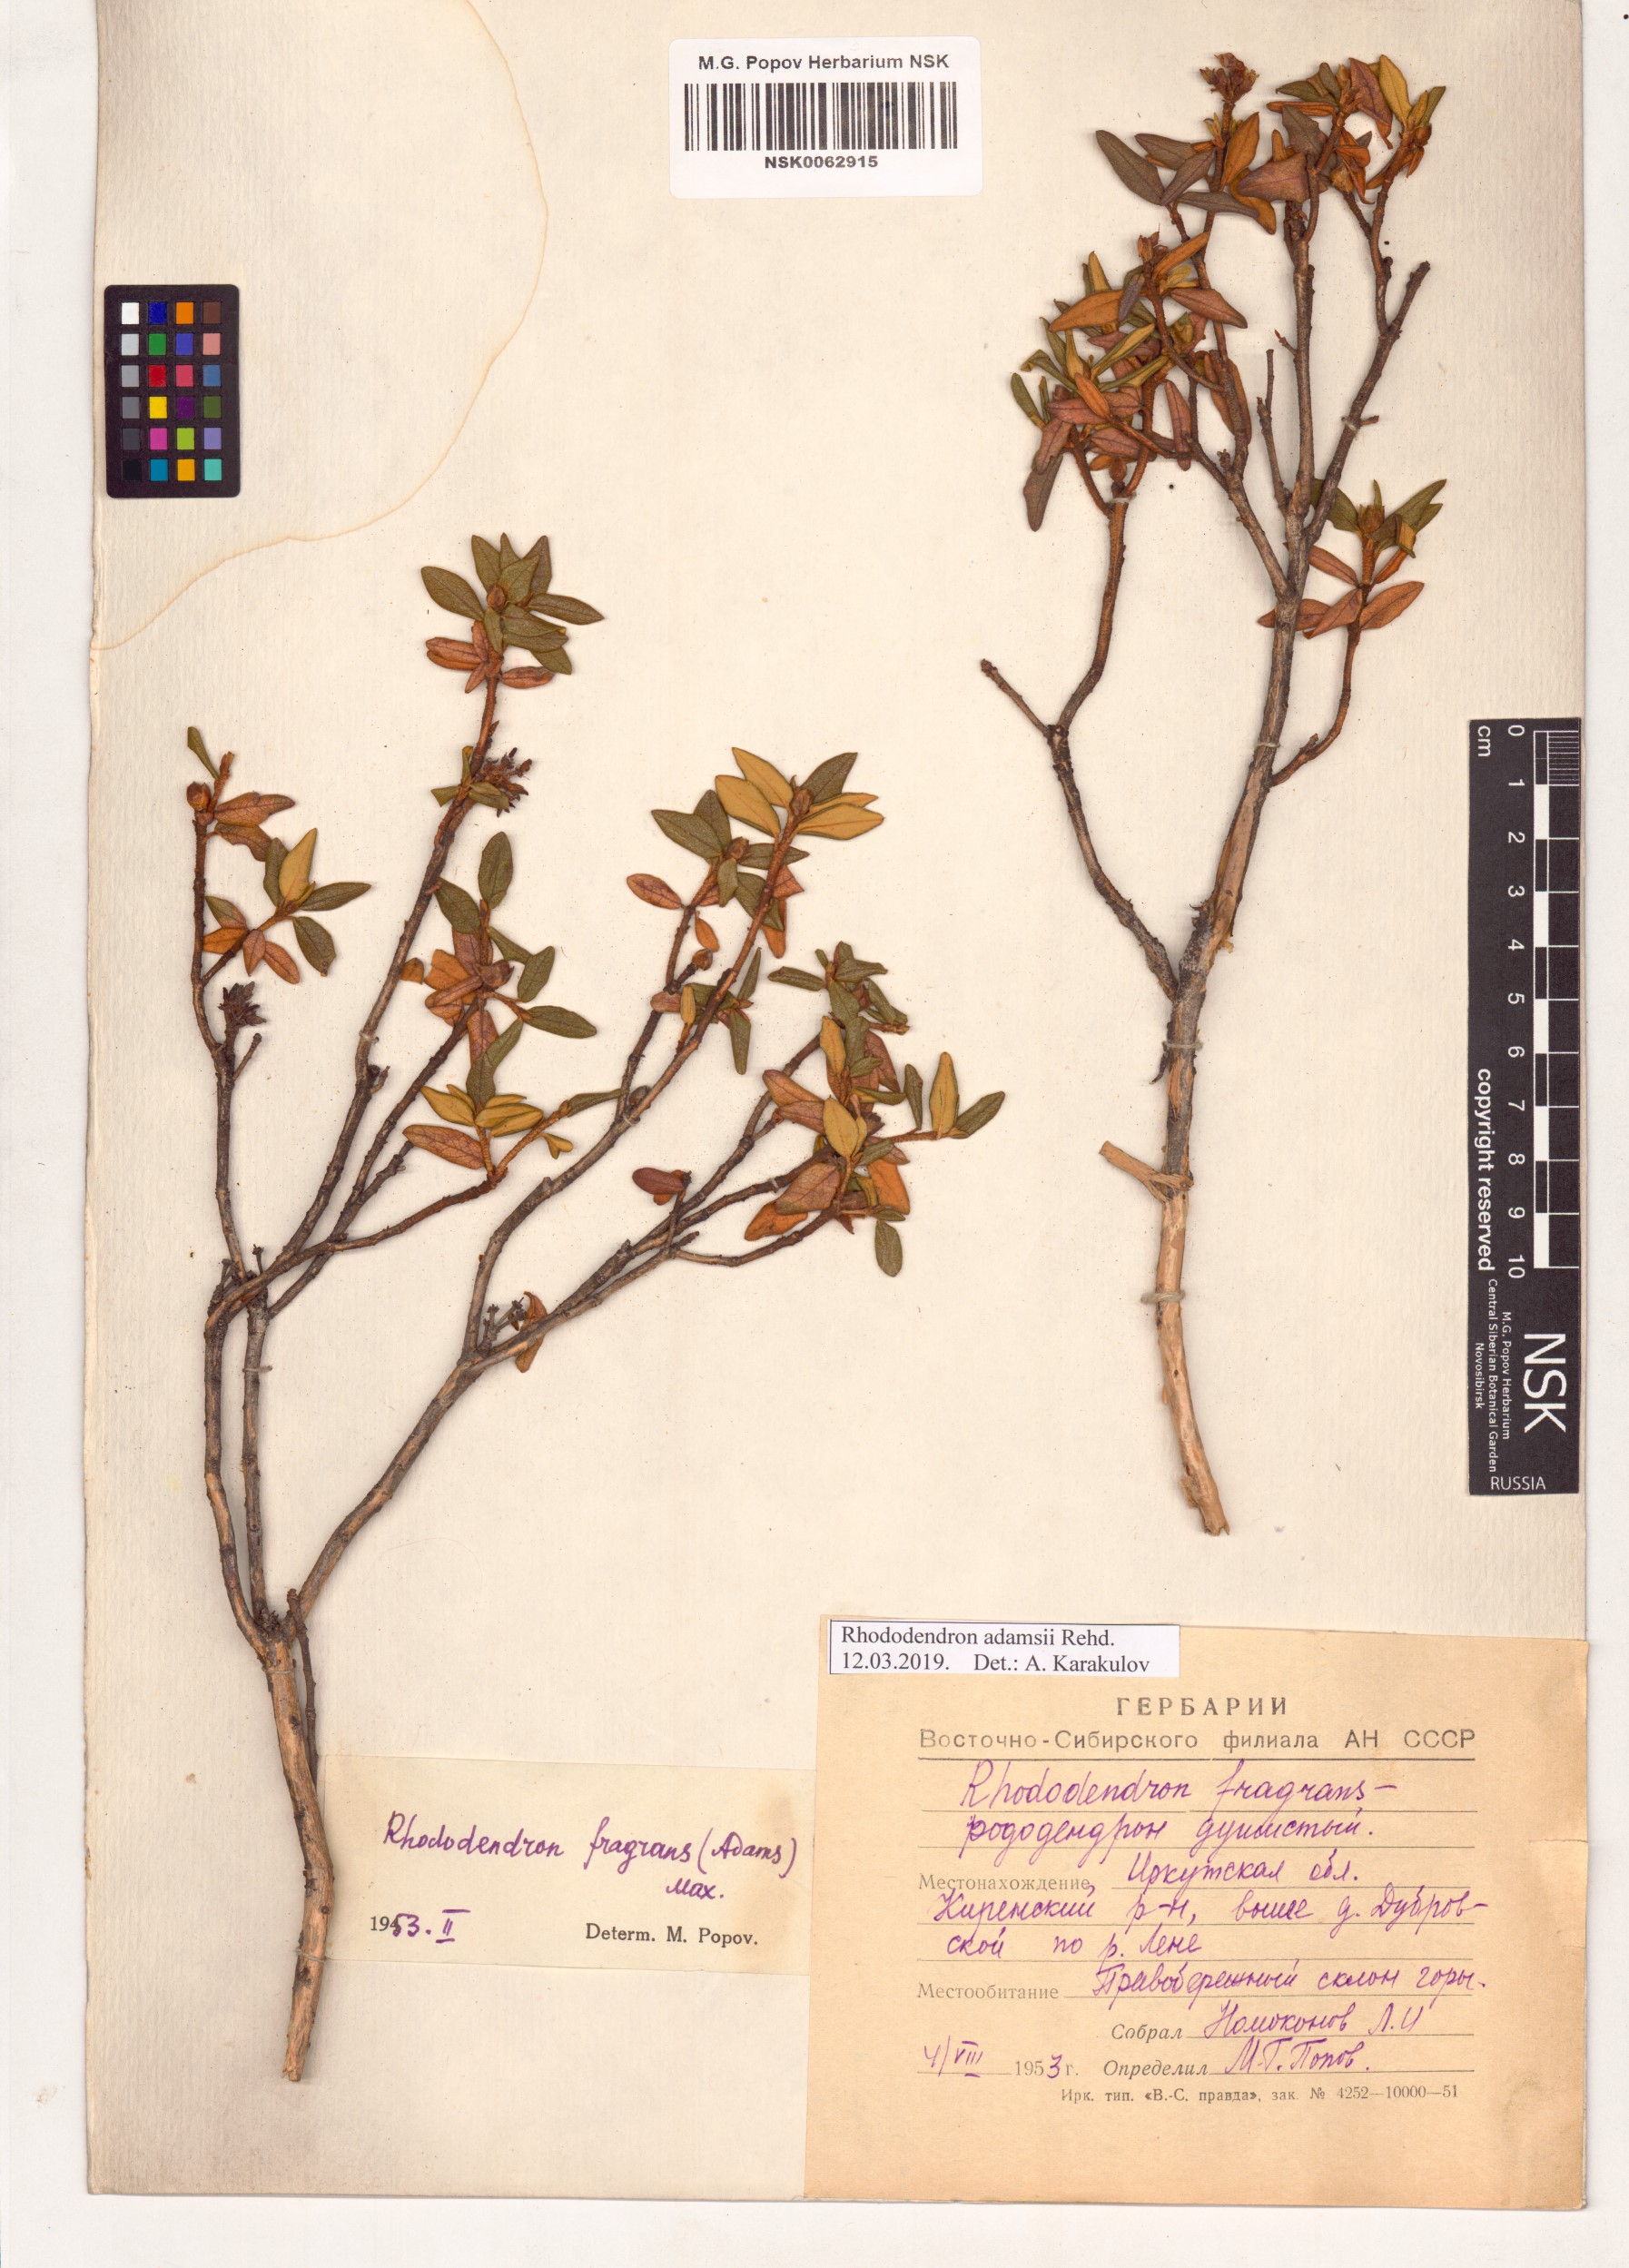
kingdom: Plantae
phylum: Tracheophyta
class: Magnoliopsida
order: Ericales
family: Ericaceae
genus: Rhododendron
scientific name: Rhododendron adamsii
